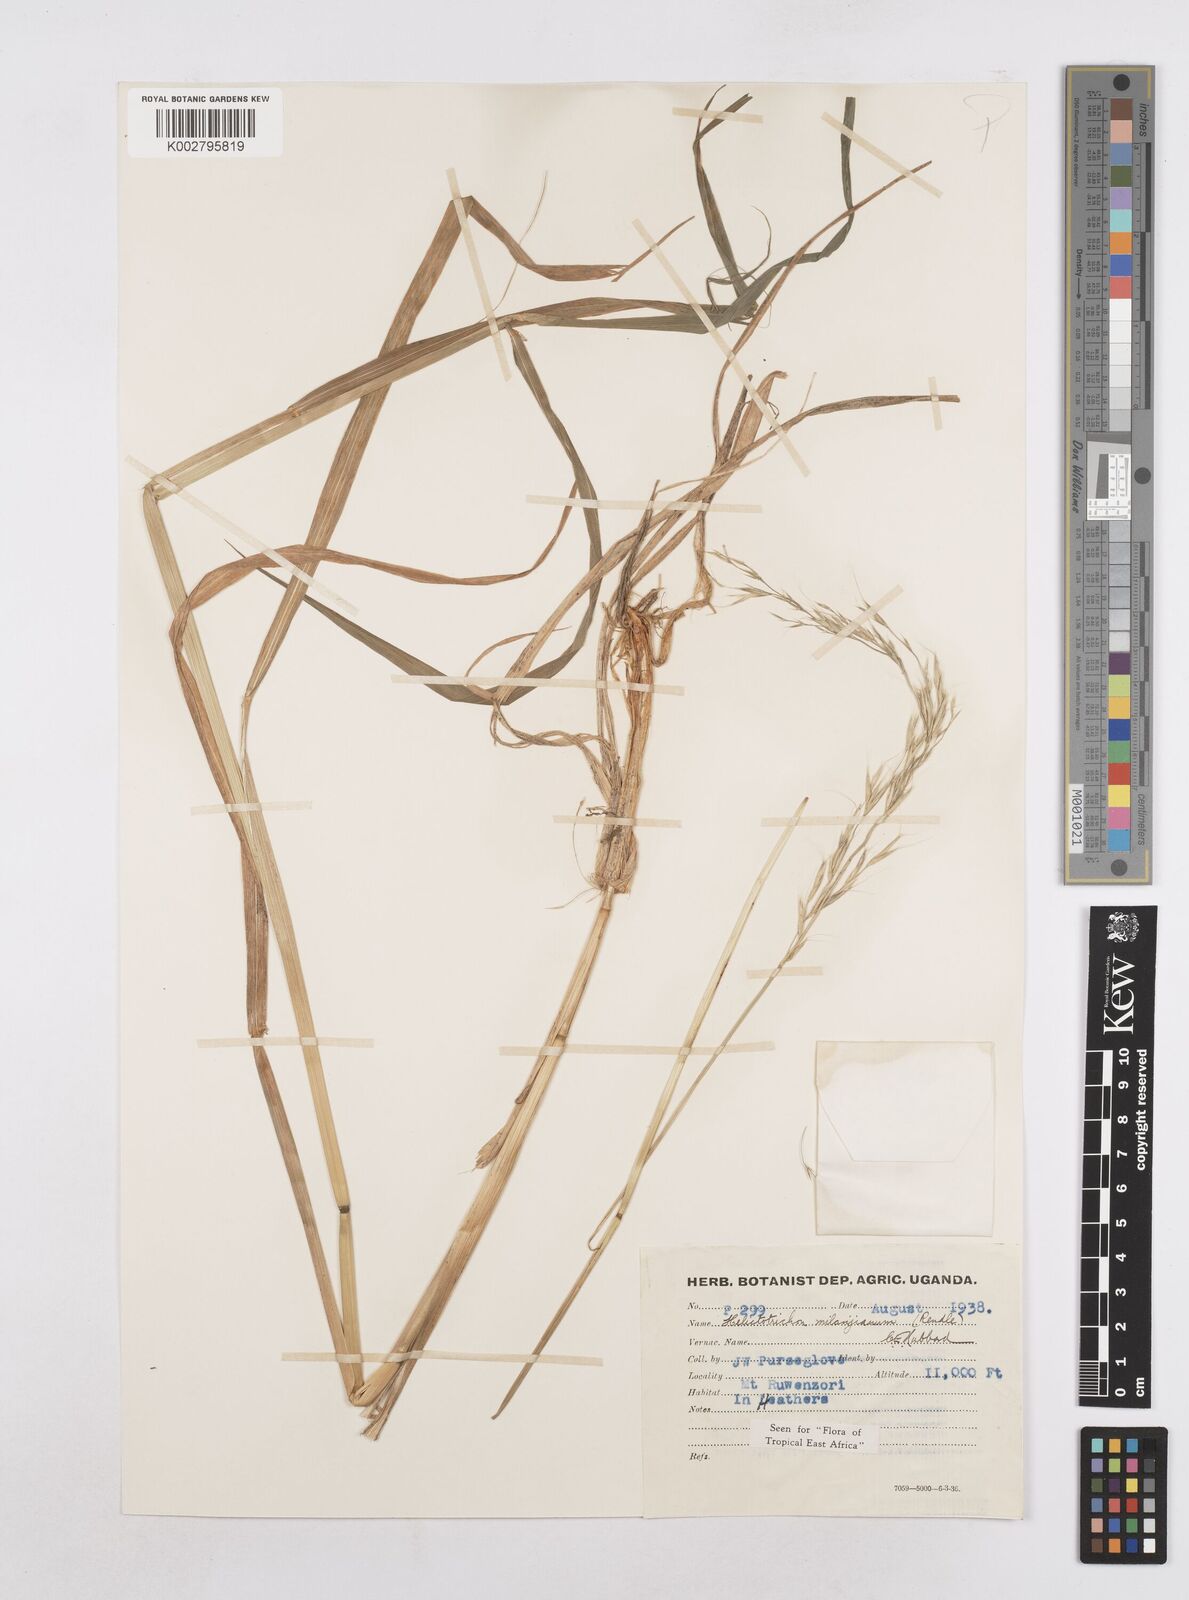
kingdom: Plantae
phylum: Tracheophyta
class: Liliopsida
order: Poales
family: Poaceae
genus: Trisetopsis
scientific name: Trisetopsis milanjiana
